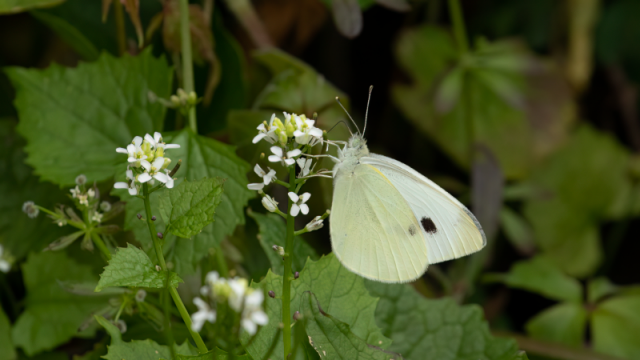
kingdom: Animalia
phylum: Arthropoda
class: Insecta
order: Lepidoptera
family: Pieridae
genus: Pieris
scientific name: Pieris rapae
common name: Cabbage White
